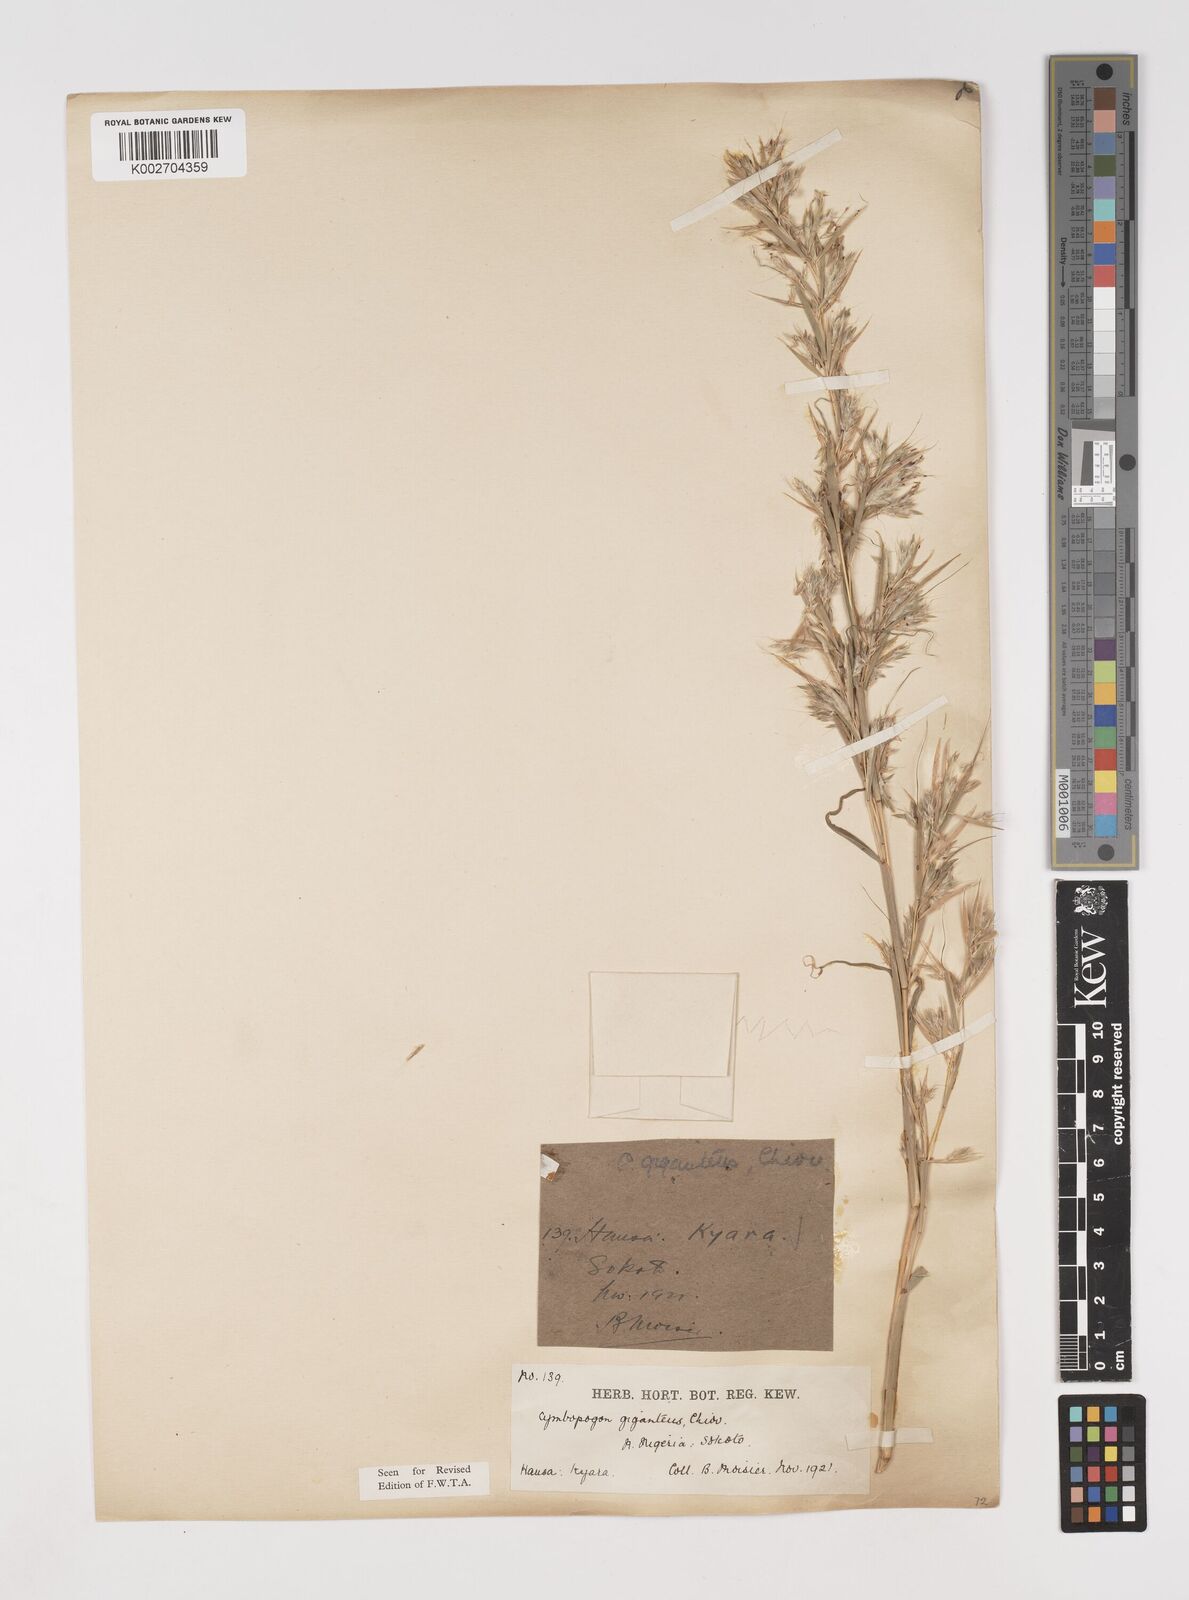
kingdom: Plantae
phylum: Tracheophyta
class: Liliopsida
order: Poales
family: Poaceae
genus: Cymbopogon
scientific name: Cymbopogon giganteus
